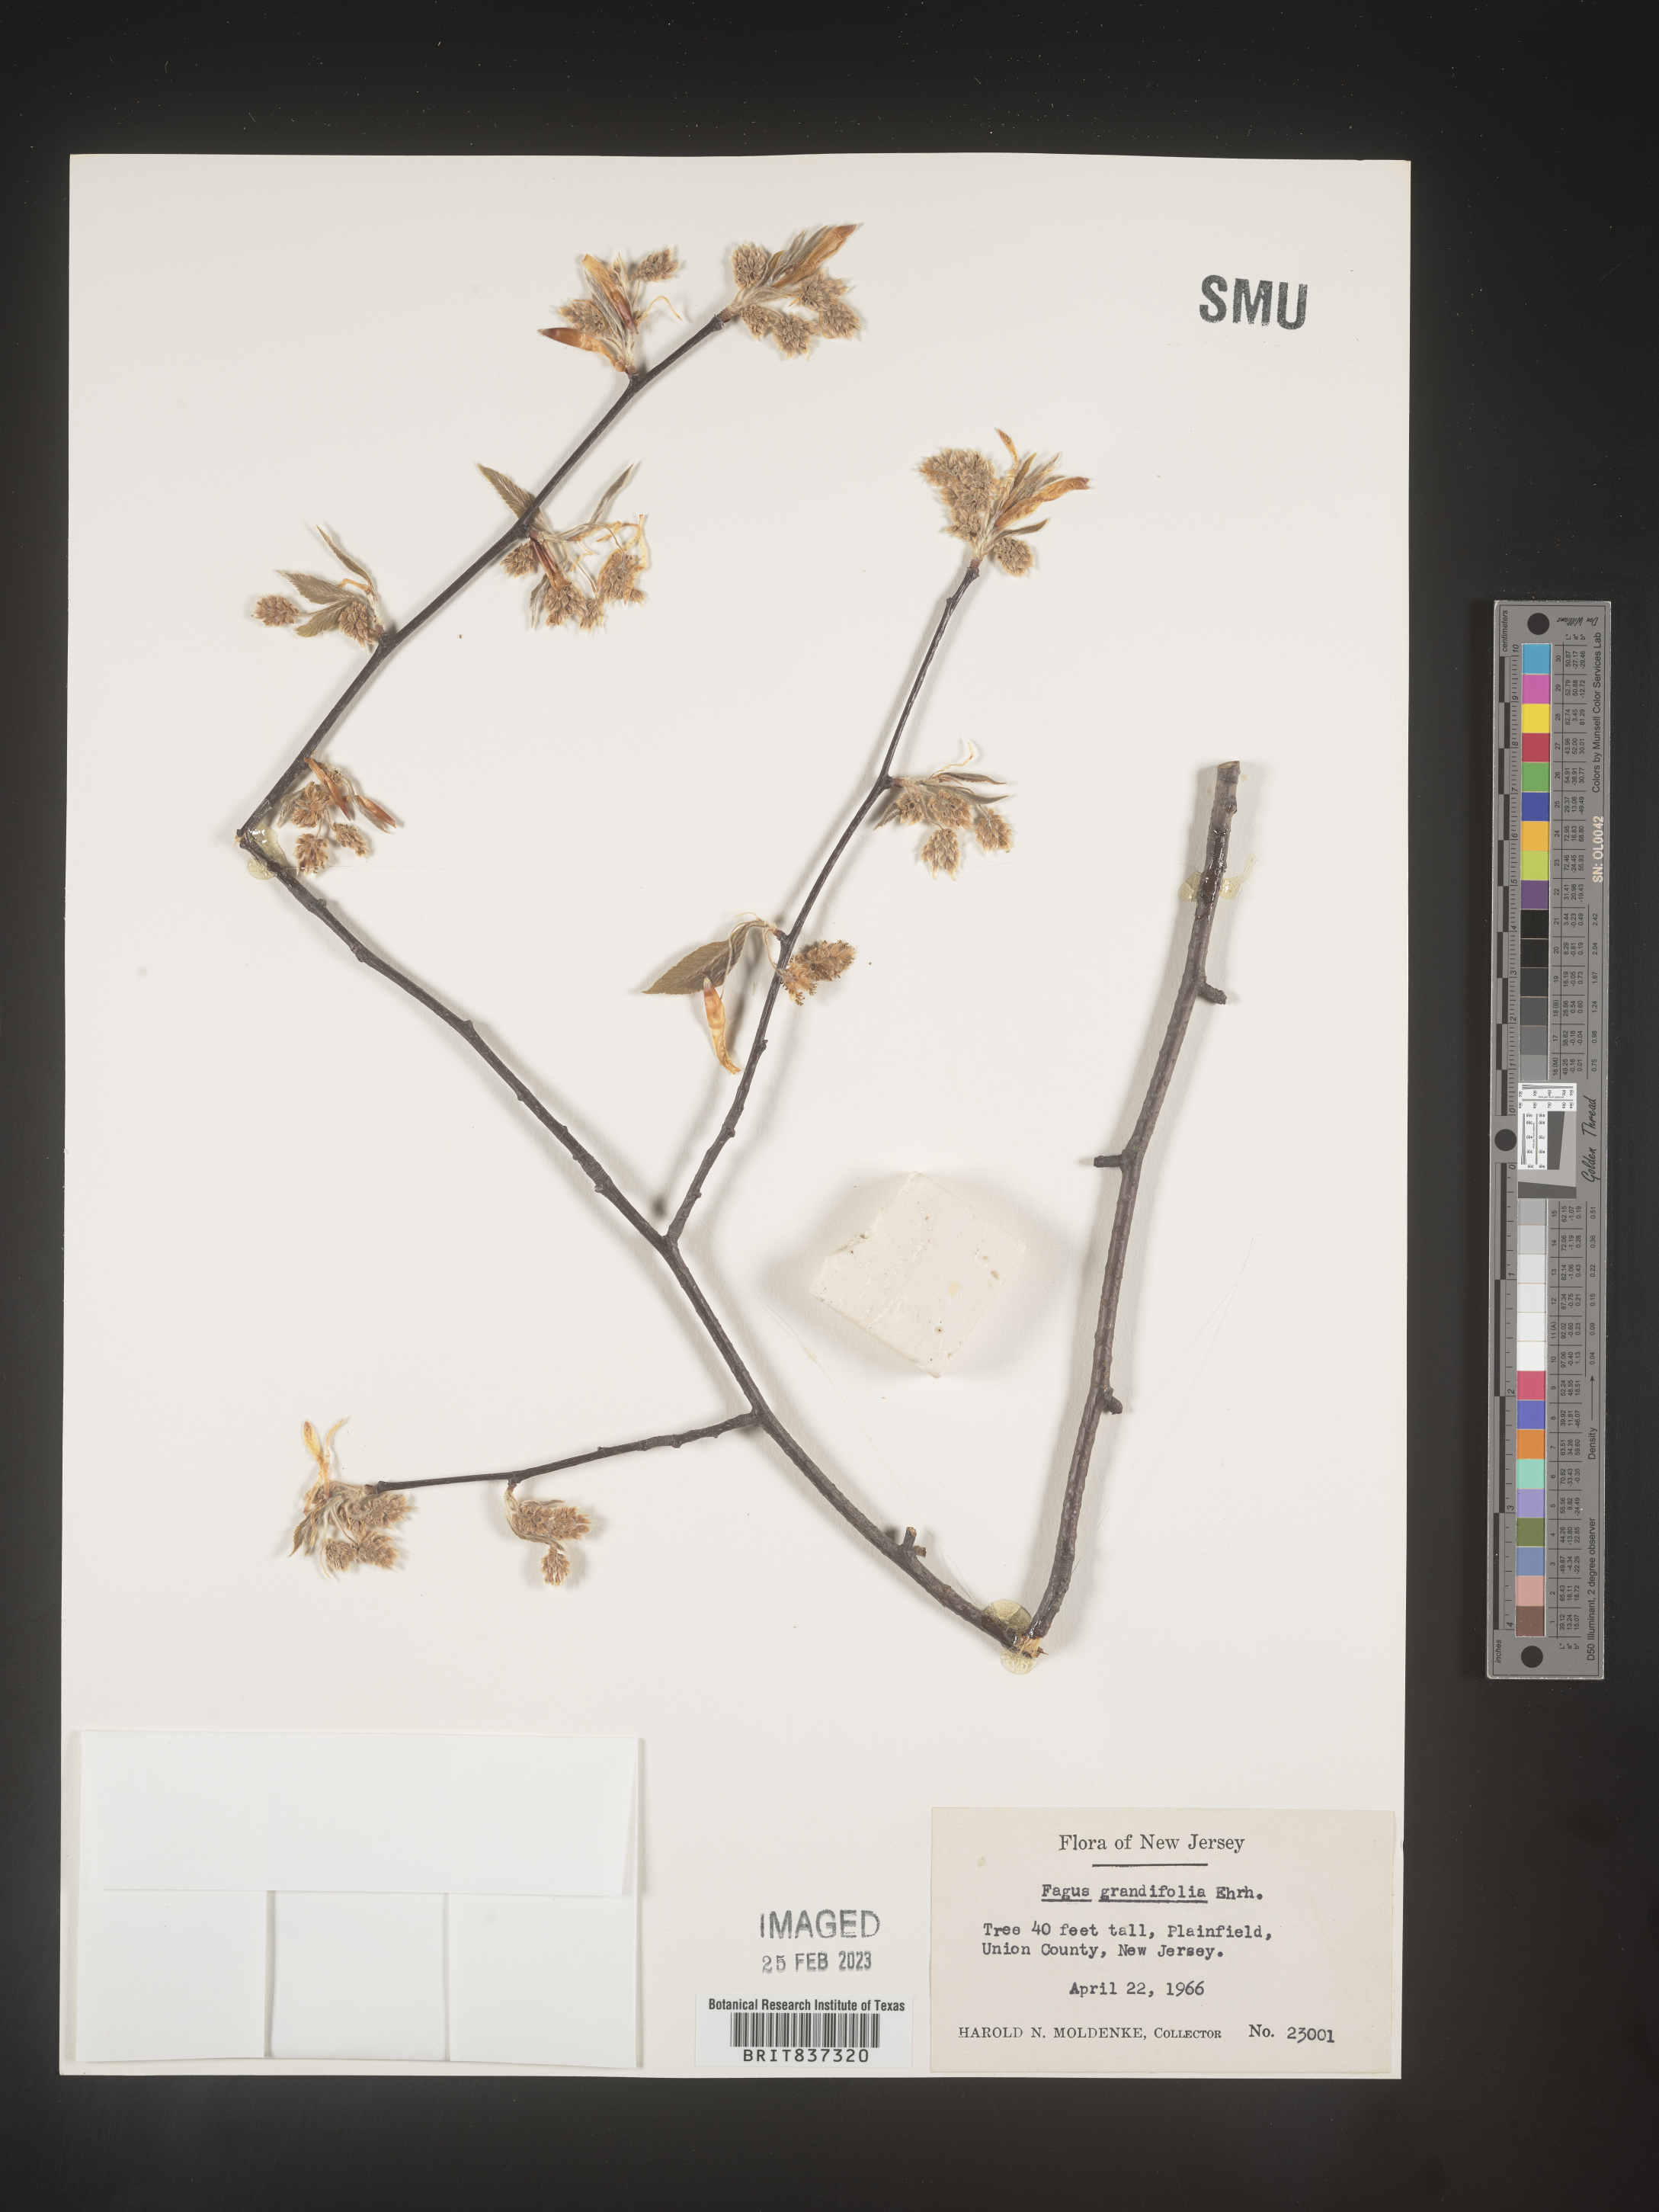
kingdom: Plantae
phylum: Tracheophyta
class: Magnoliopsida
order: Fagales
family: Fagaceae
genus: Fagus
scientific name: Fagus grandifolia
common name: American beech
